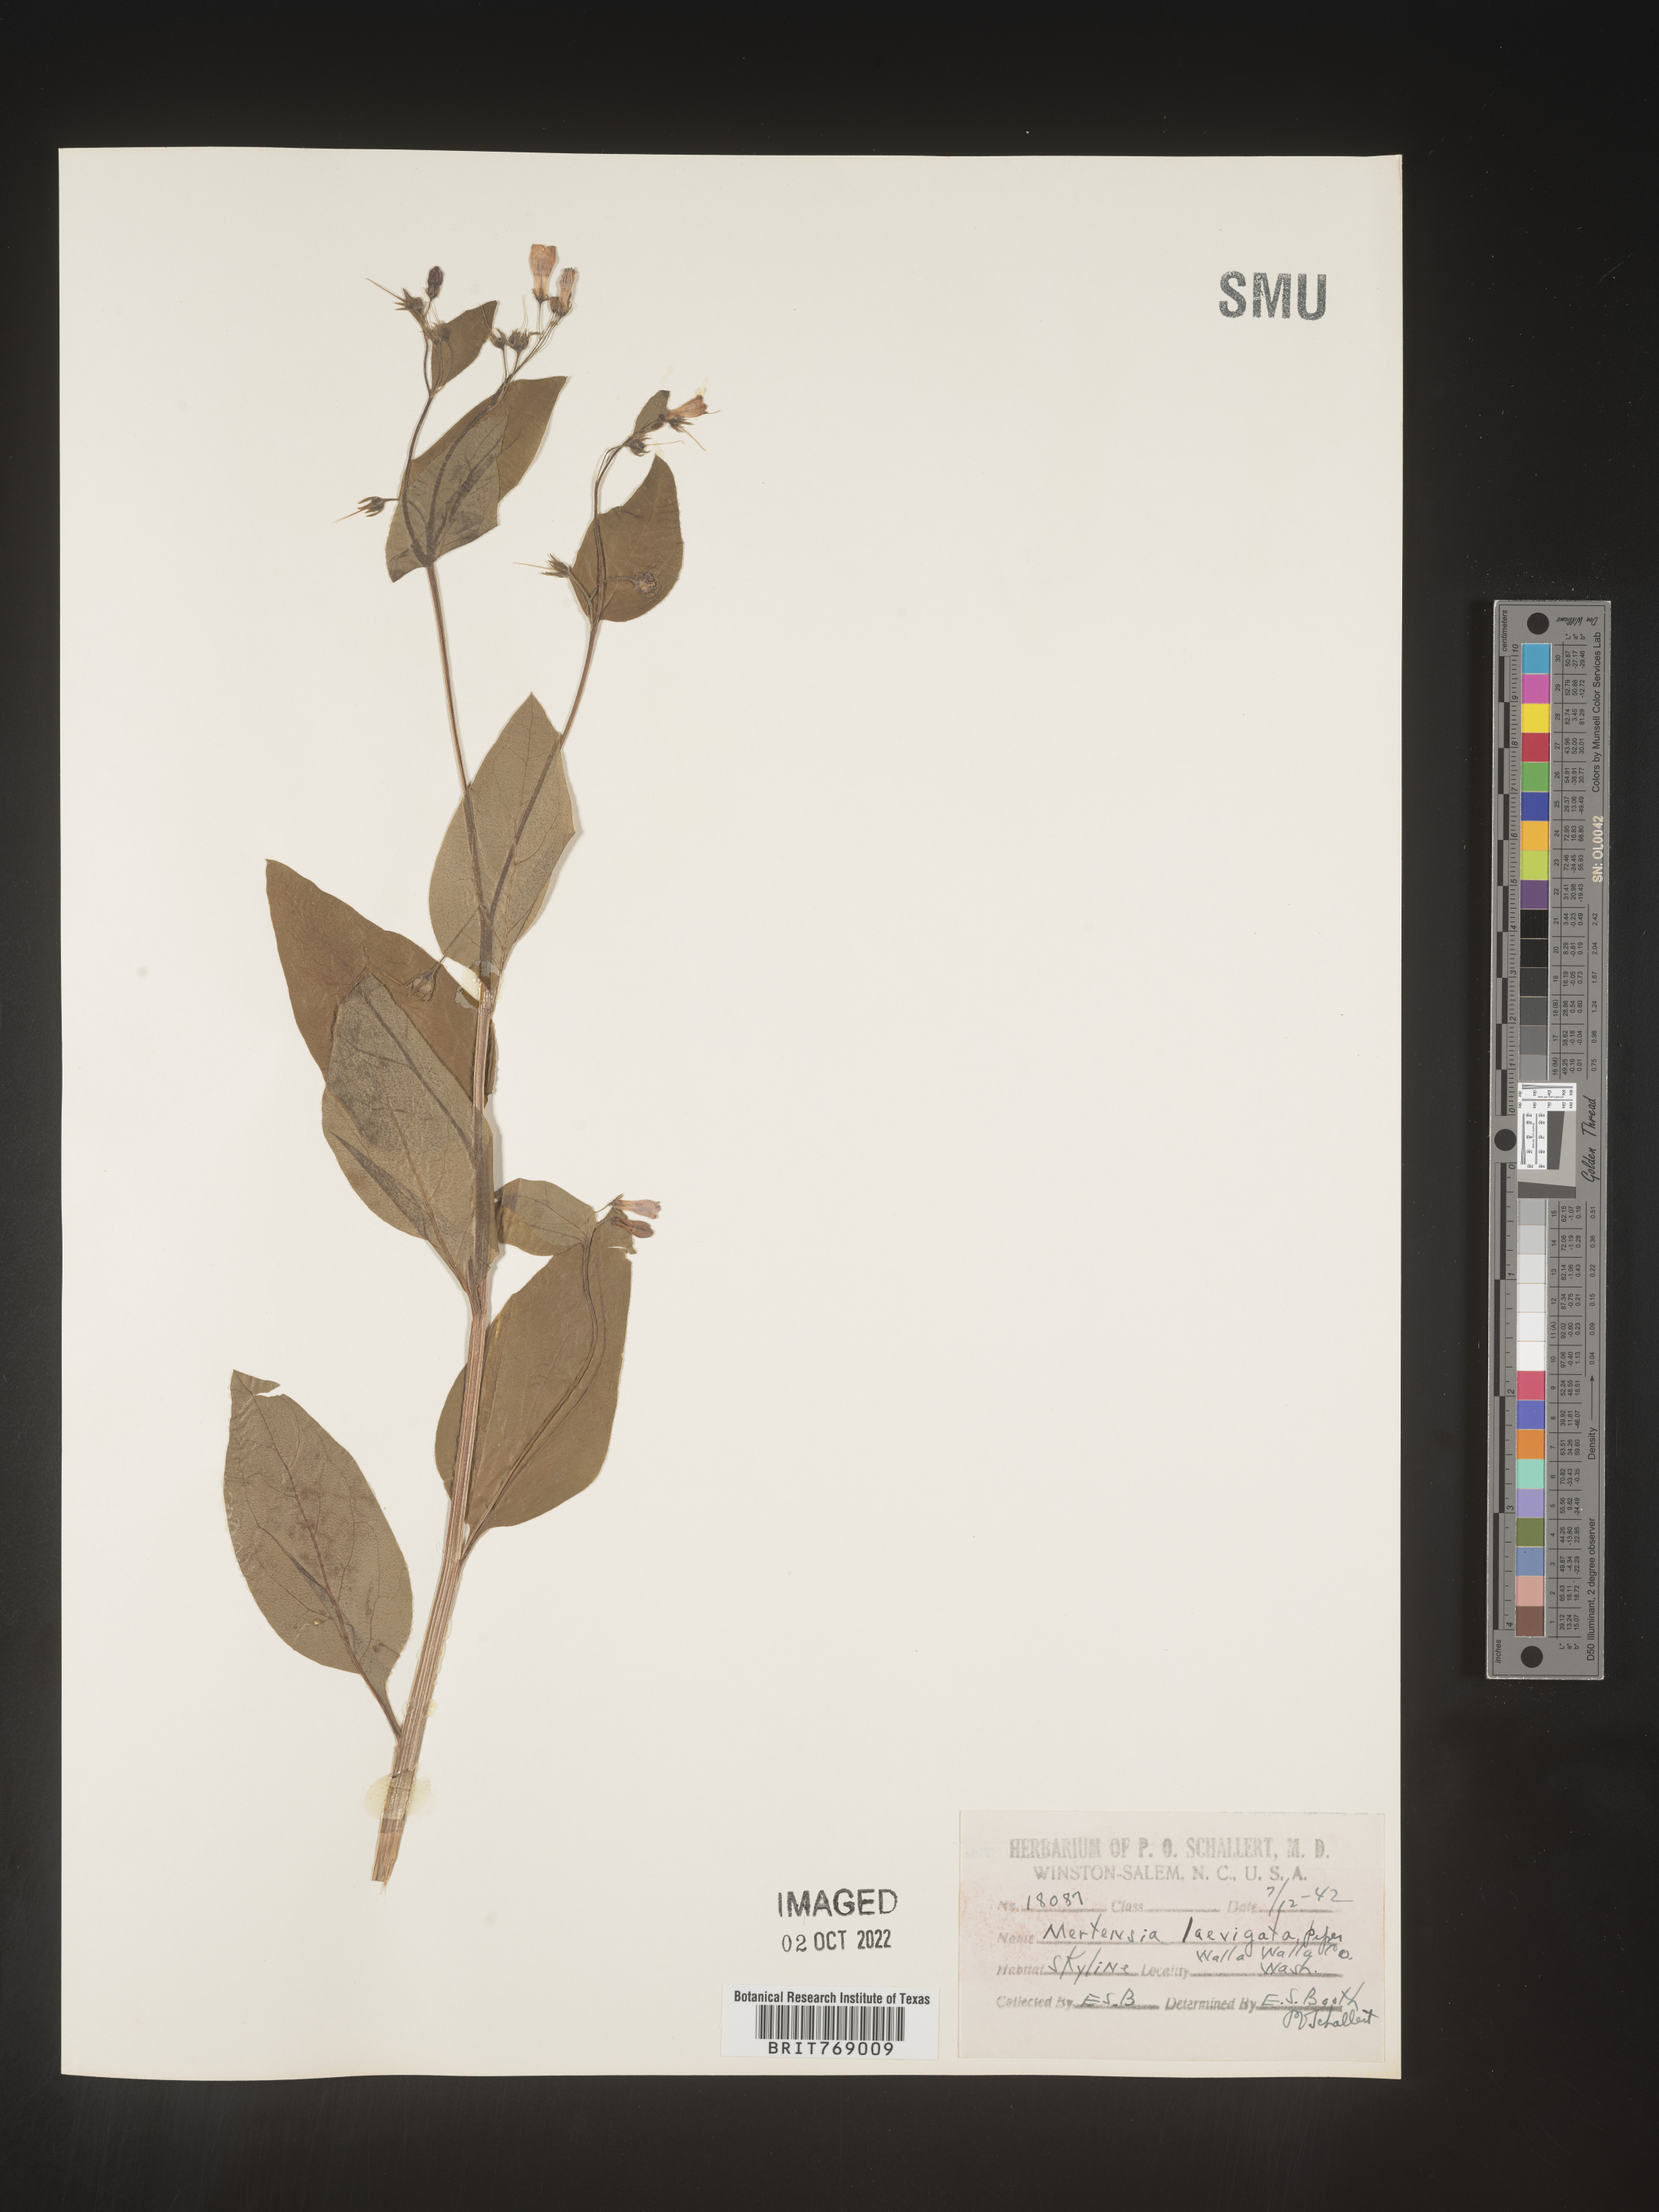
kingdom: Plantae
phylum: Tracheophyta
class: Magnoliopsida
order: Boraginales
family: Boraginaceae
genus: Mertensia
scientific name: Mertensia
